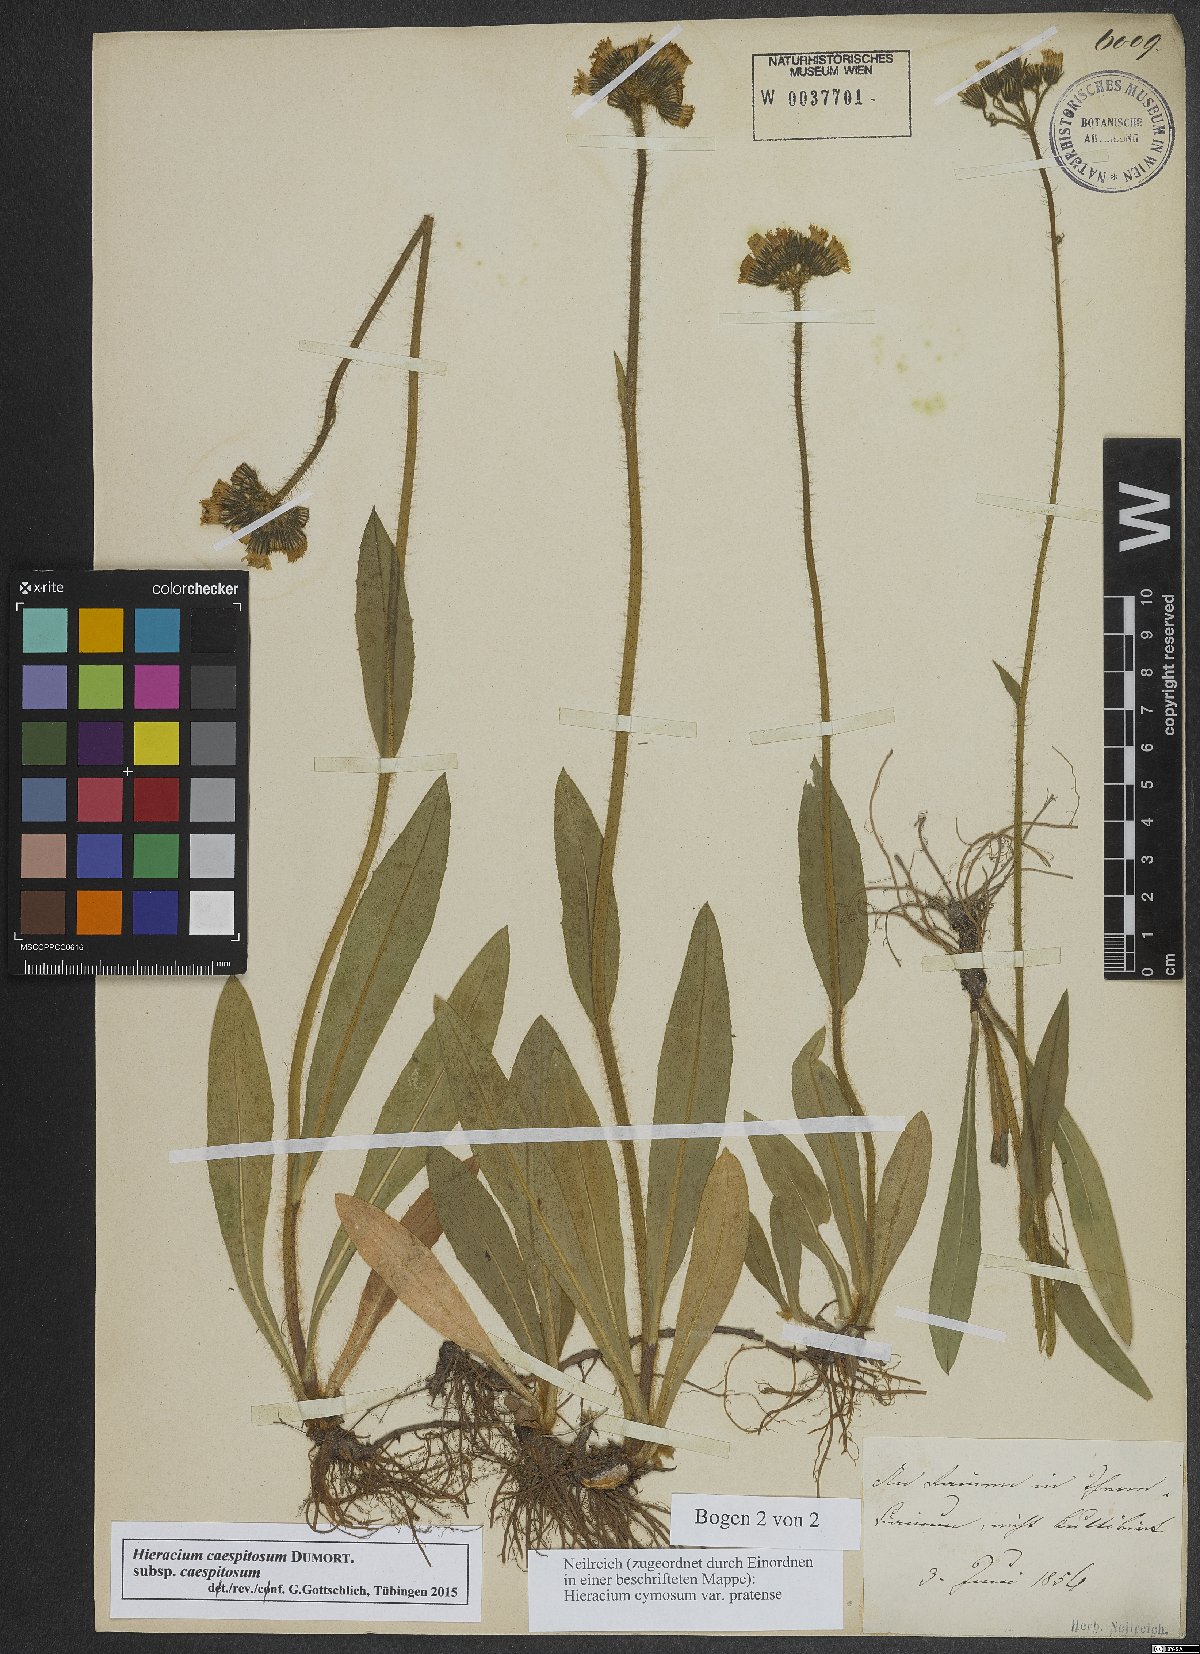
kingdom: Plantae
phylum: Tracheophyta
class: Magnoliopsida
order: Asterales
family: Asteraceae
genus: Pilosella
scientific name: Pilosella caespitosa
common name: Yellow fox-and-cubs
